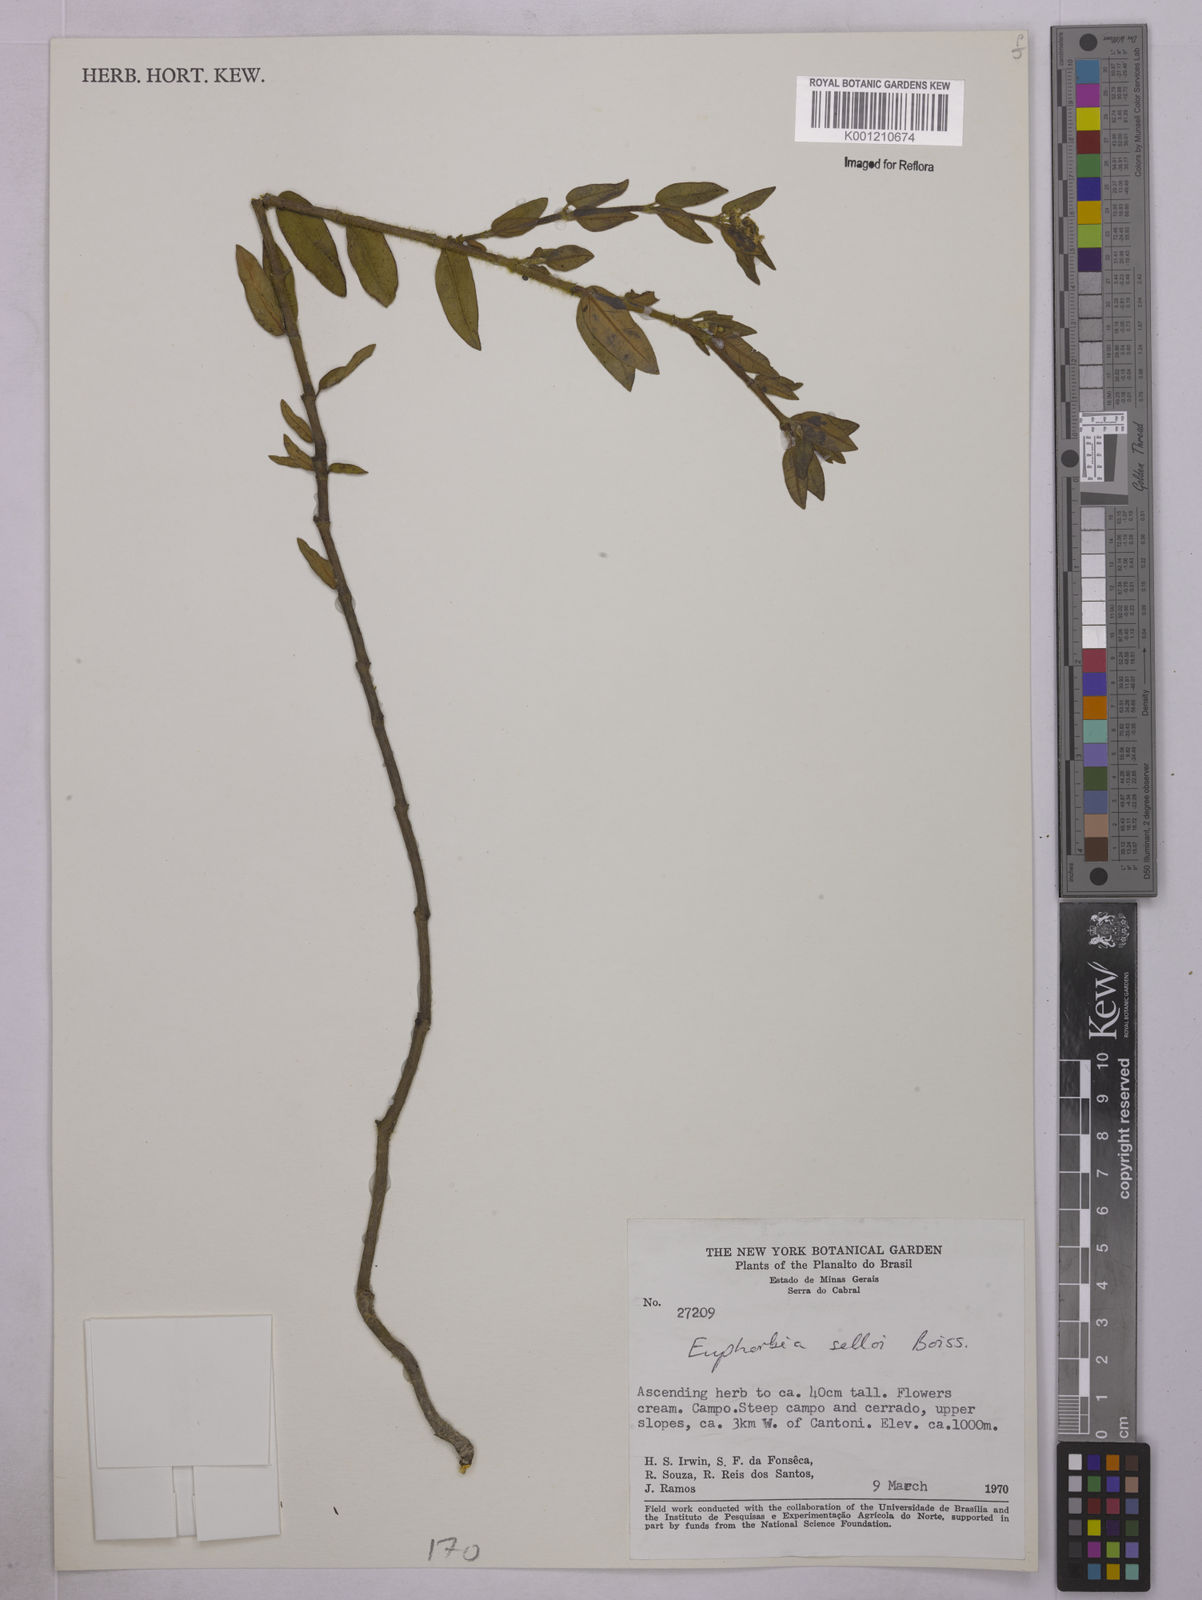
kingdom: Plantae
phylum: Tracheophyta
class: Magnoliopsida
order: Malpighiales
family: Euphorbiaceae
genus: Euphorbia
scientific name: Euphorbia selloi
